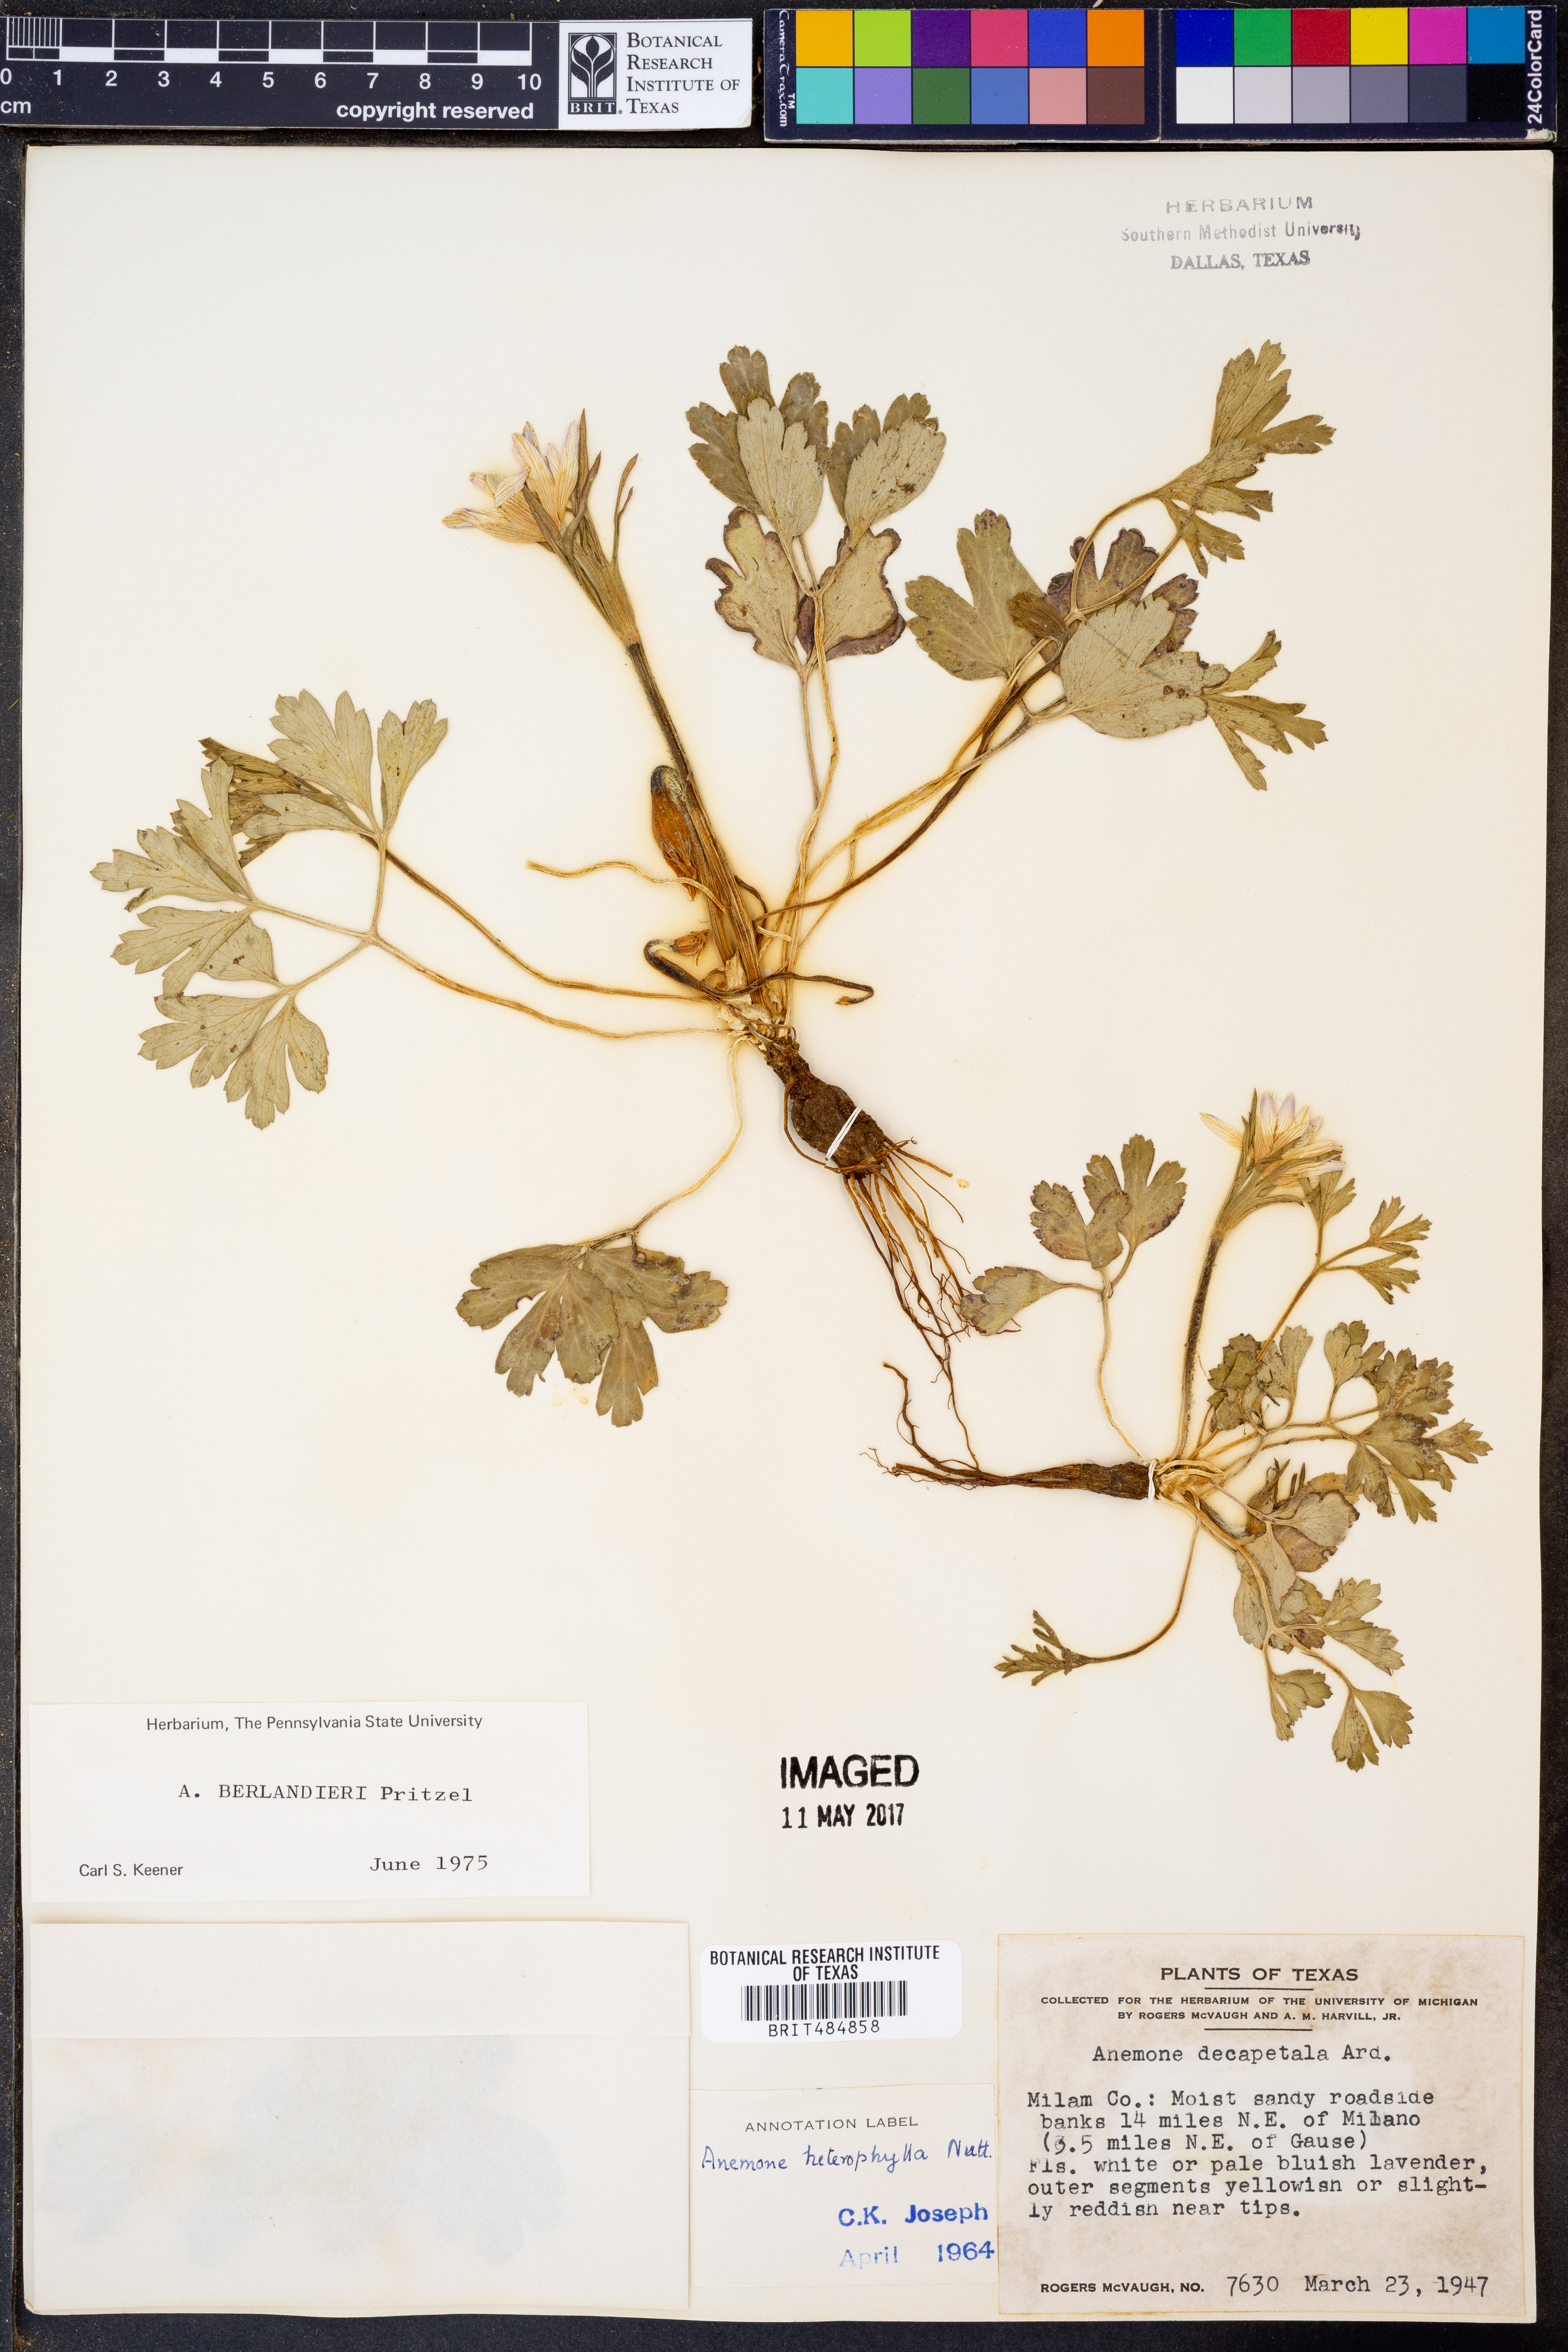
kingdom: Plantae
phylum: Tracheophyta
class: Magnoliopsida
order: Ranunculales
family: Ranunculaceae
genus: Anemone
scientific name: Anemone berlandieri
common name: Ten-petal anemone
